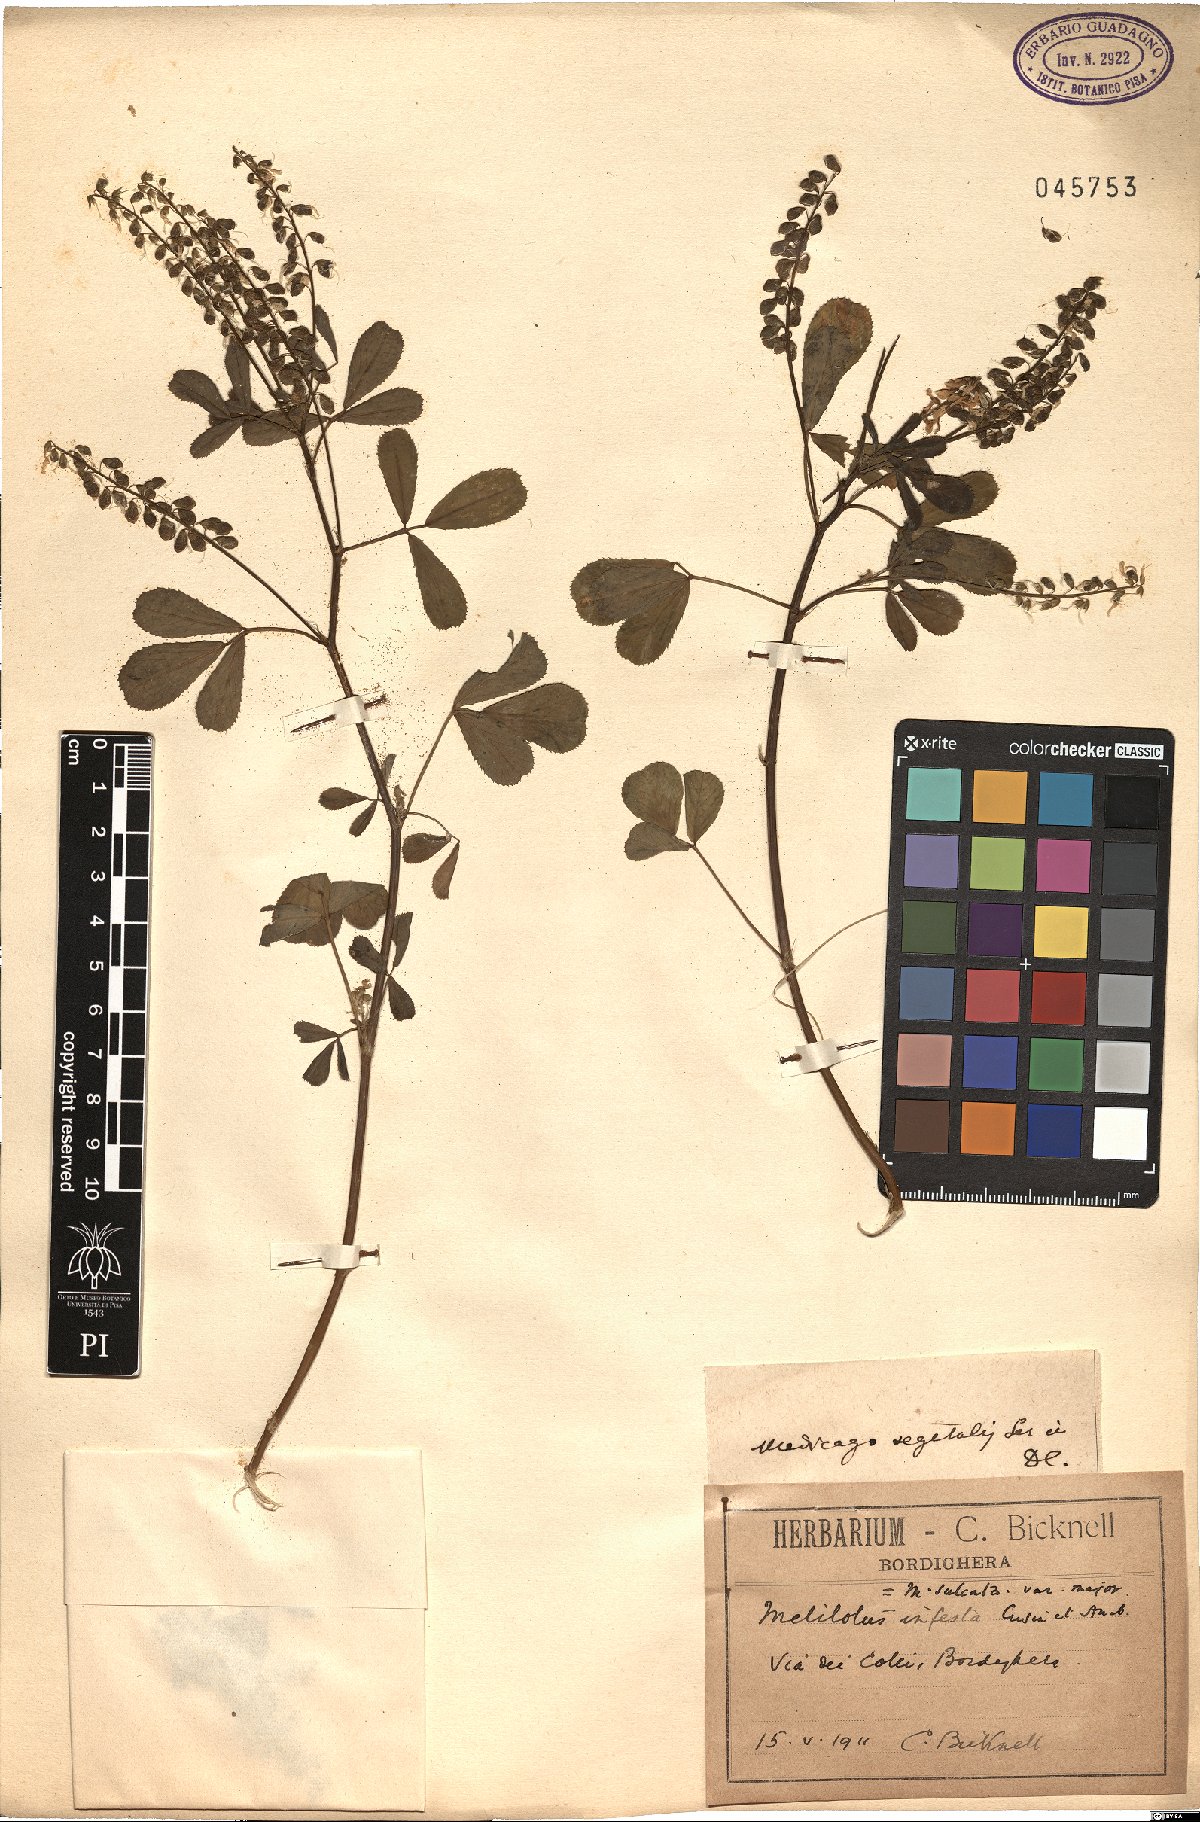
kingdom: Plantae
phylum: Tracheophyta
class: Magnoliopsida
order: Fabales
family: Fabaceae
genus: Medicago
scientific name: Medicago
